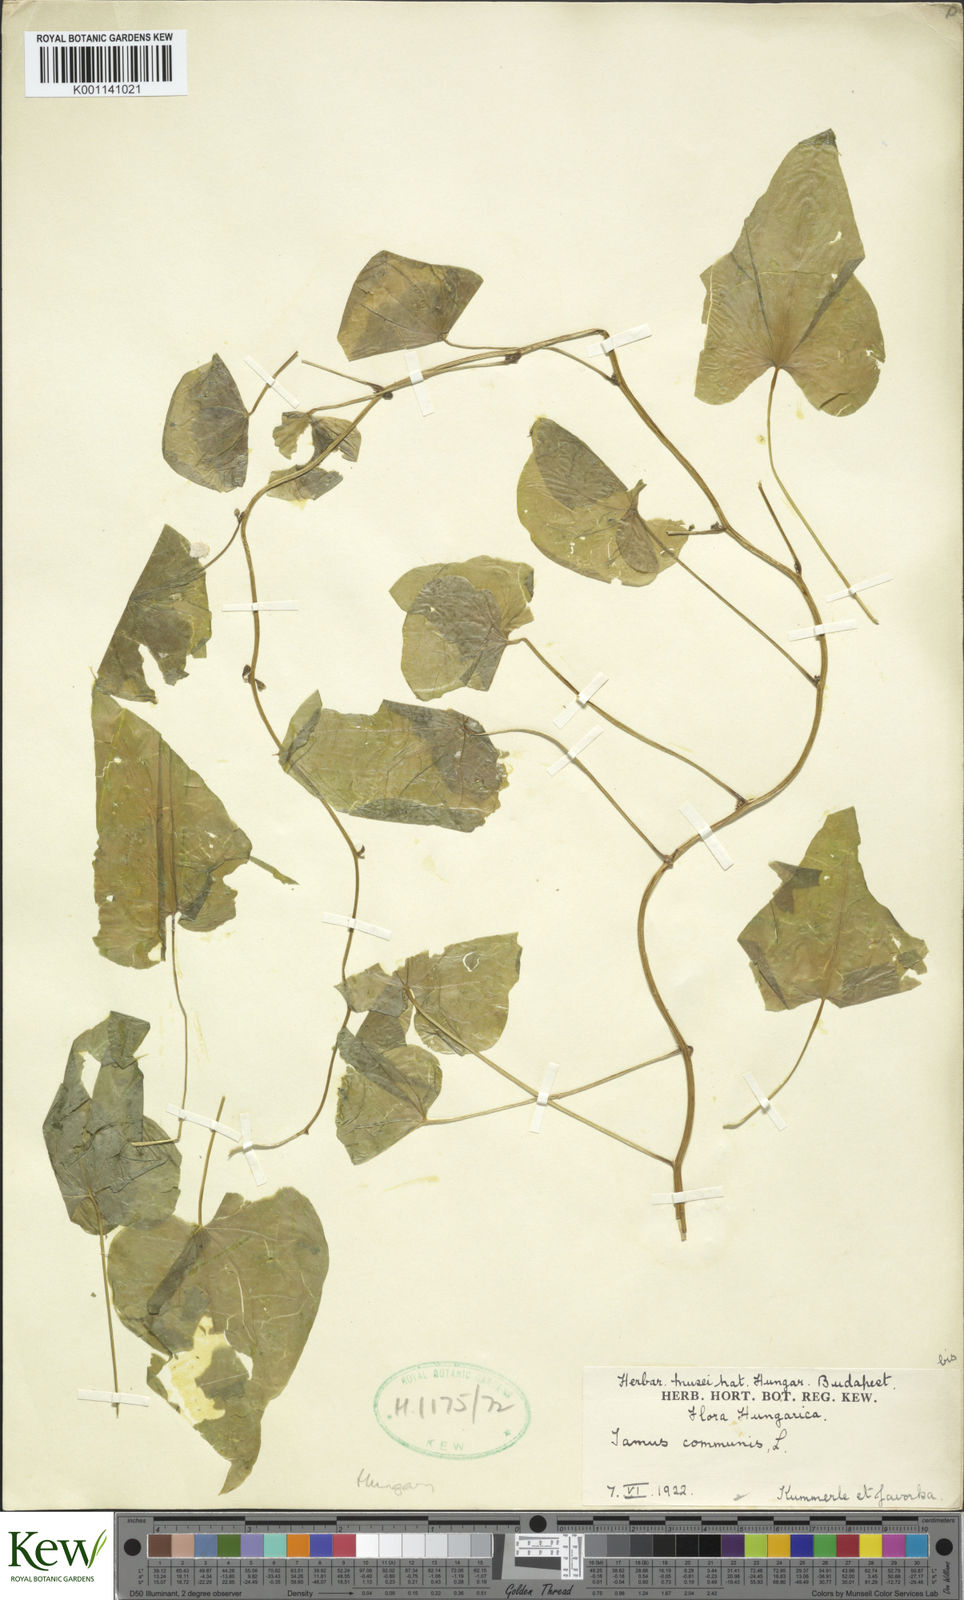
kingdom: Plantae
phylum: Tracheophyta
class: Liliopsida
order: Dioscoreales
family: Dioscoreaceae
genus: Dioscorea
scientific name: Dioscorea communis
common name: Black-bindweed
